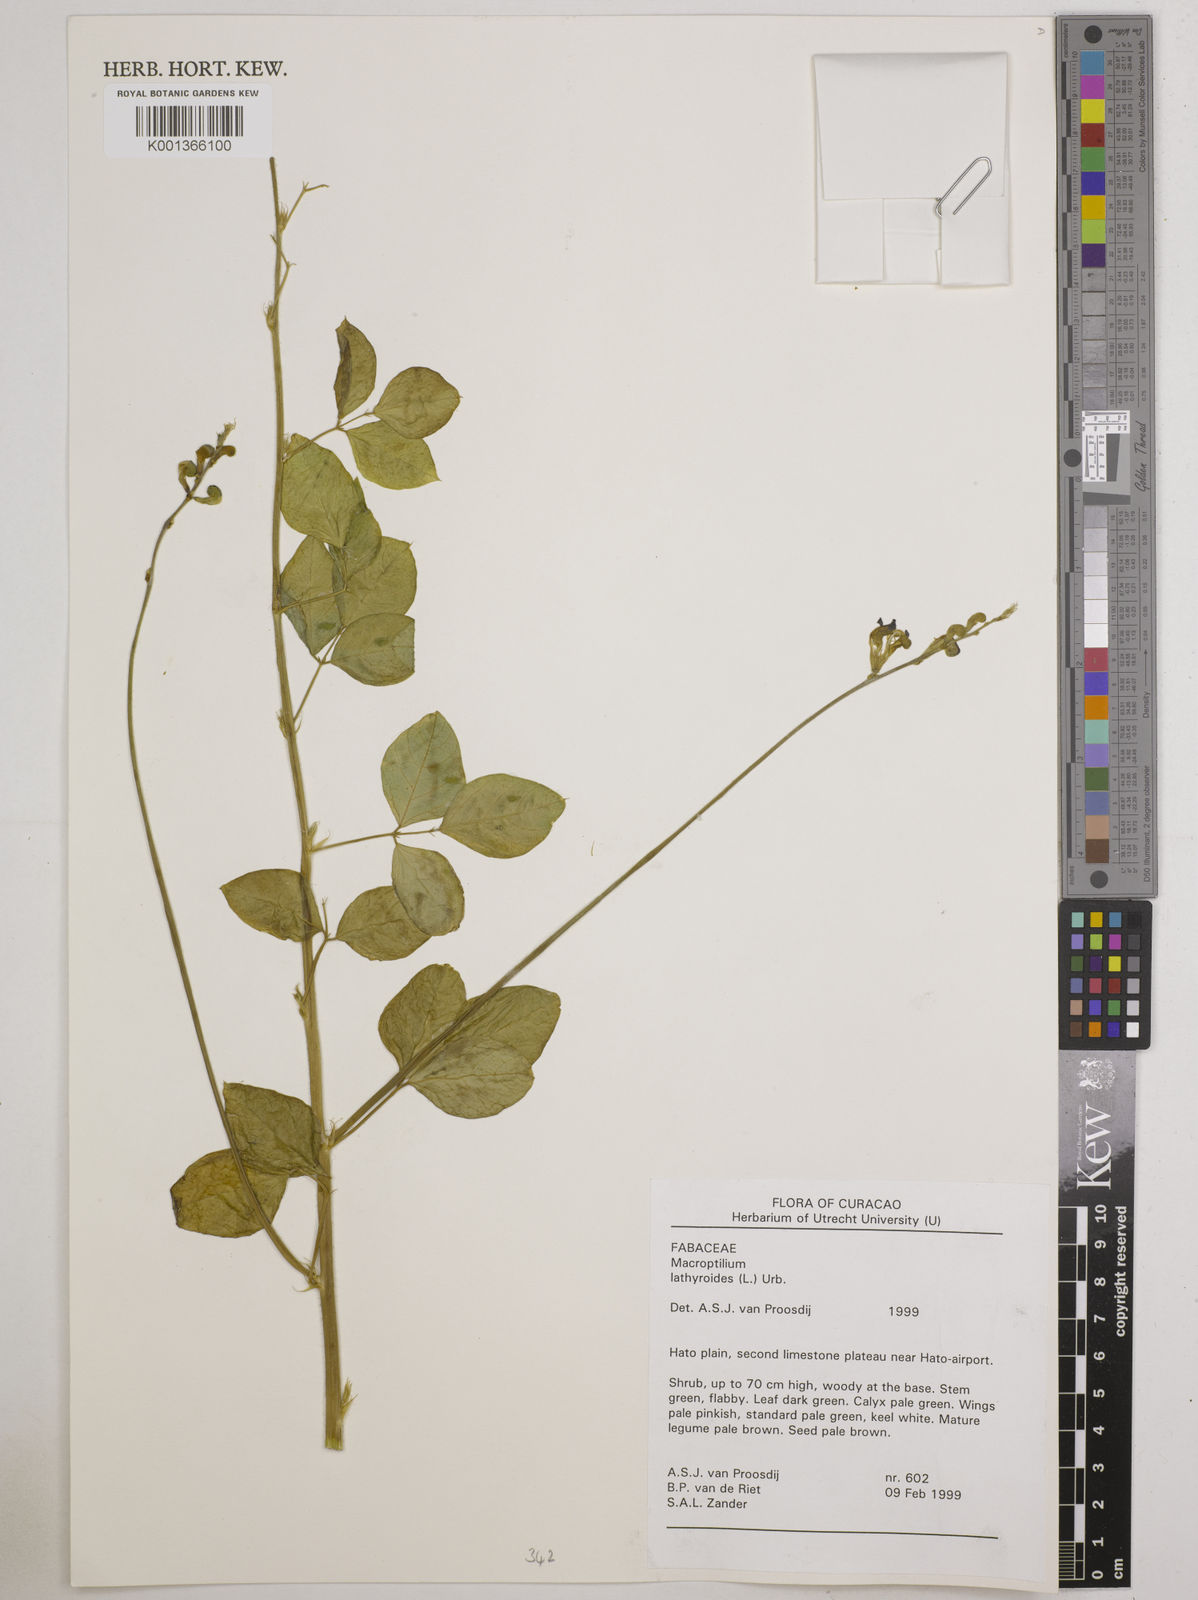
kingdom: Plantae
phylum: Tracheophyta
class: Magnoliopsida
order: Fabales
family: Fabaceae
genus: Macroptilium
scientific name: Macroptilium lathyroides
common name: Wild bushbean
